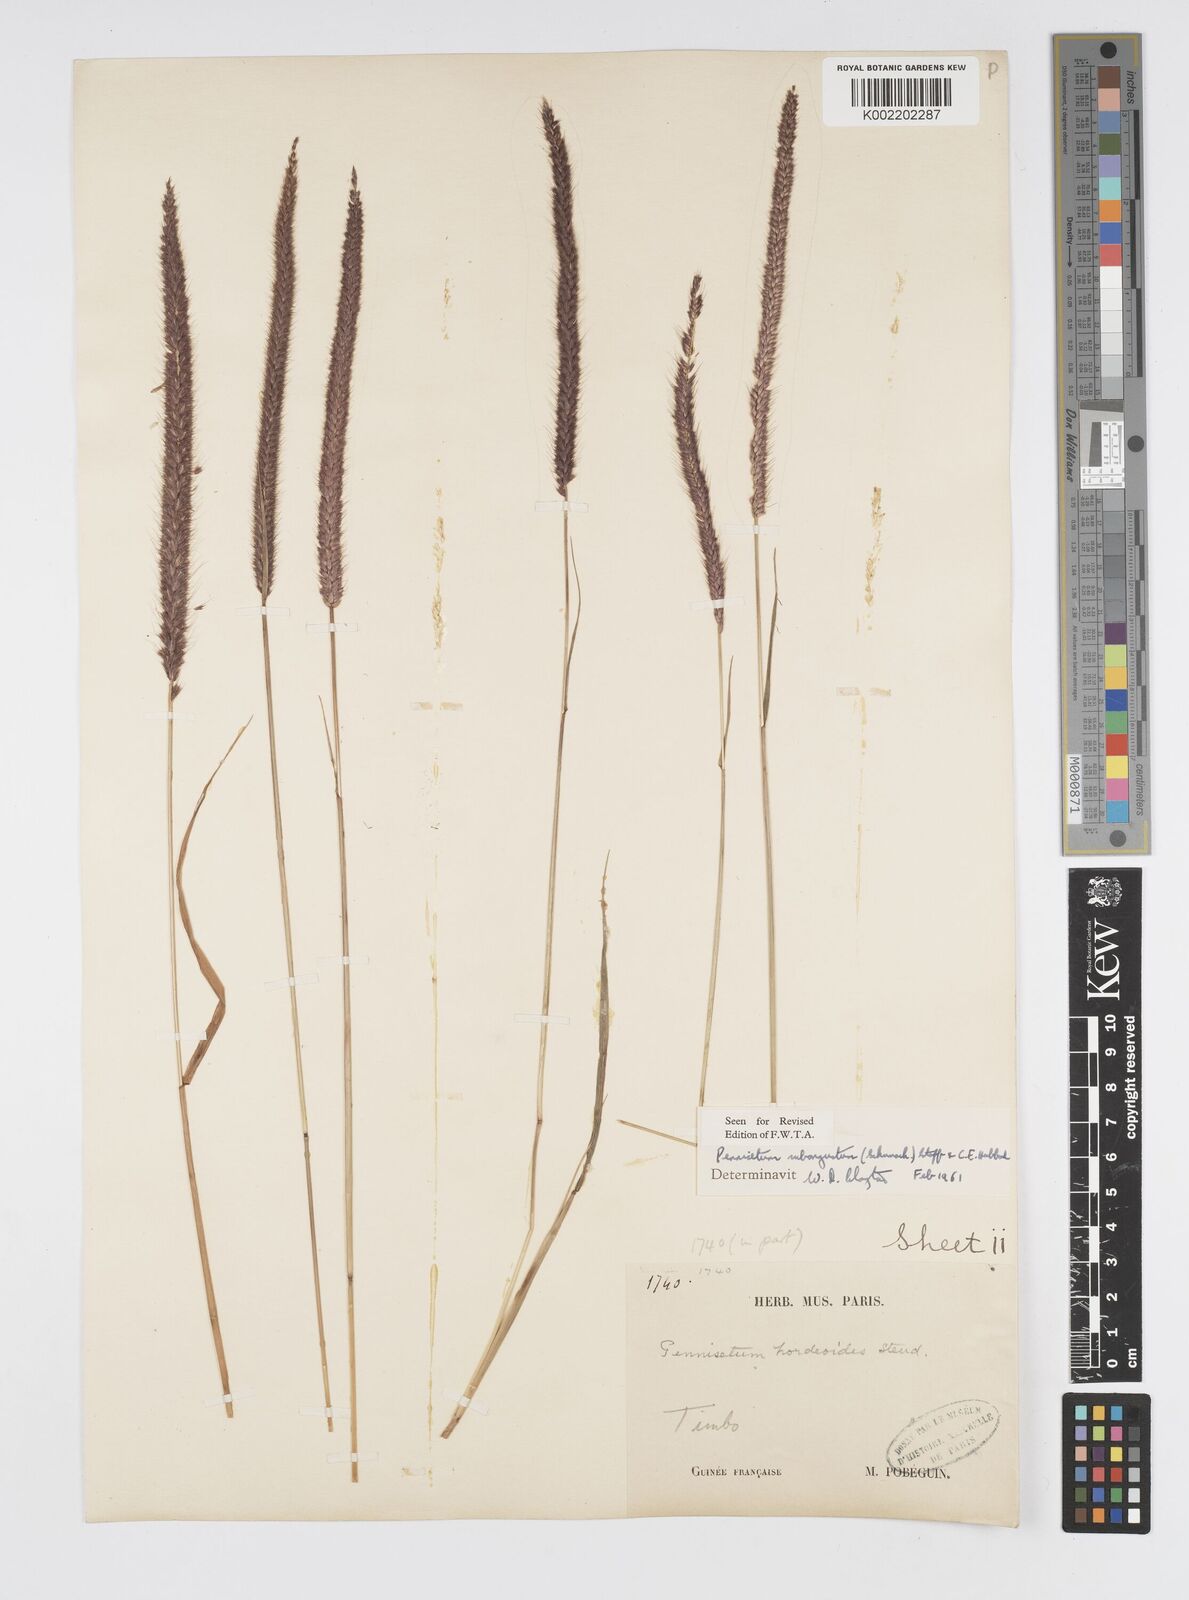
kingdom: Plantae
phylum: Tracheophyta
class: Liliopsida
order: Poales
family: Poaceae
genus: Setaria
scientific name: Setaria parviflora
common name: Knotroot bristle-grass
